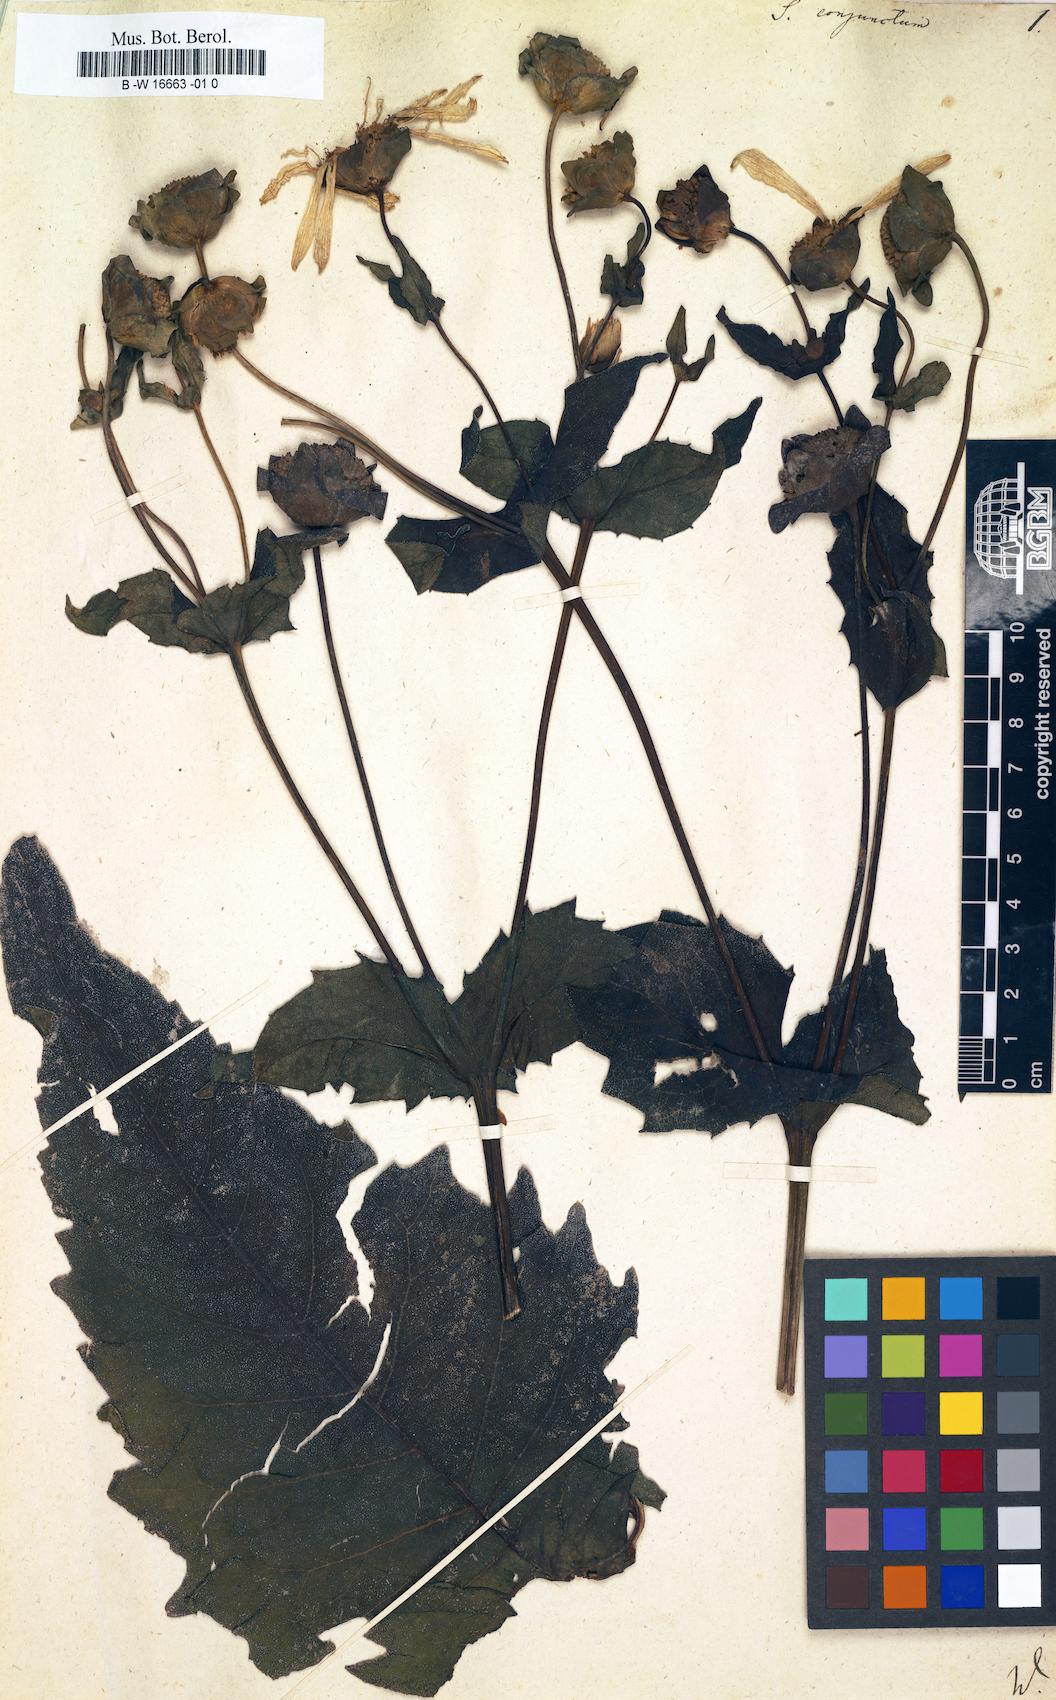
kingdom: Plantae
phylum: Tracheophyta
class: Magnoliopsida
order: Asterales
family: Asteraceae
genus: Silphium
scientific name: Silphium perfoliatum
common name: Cup-plant
